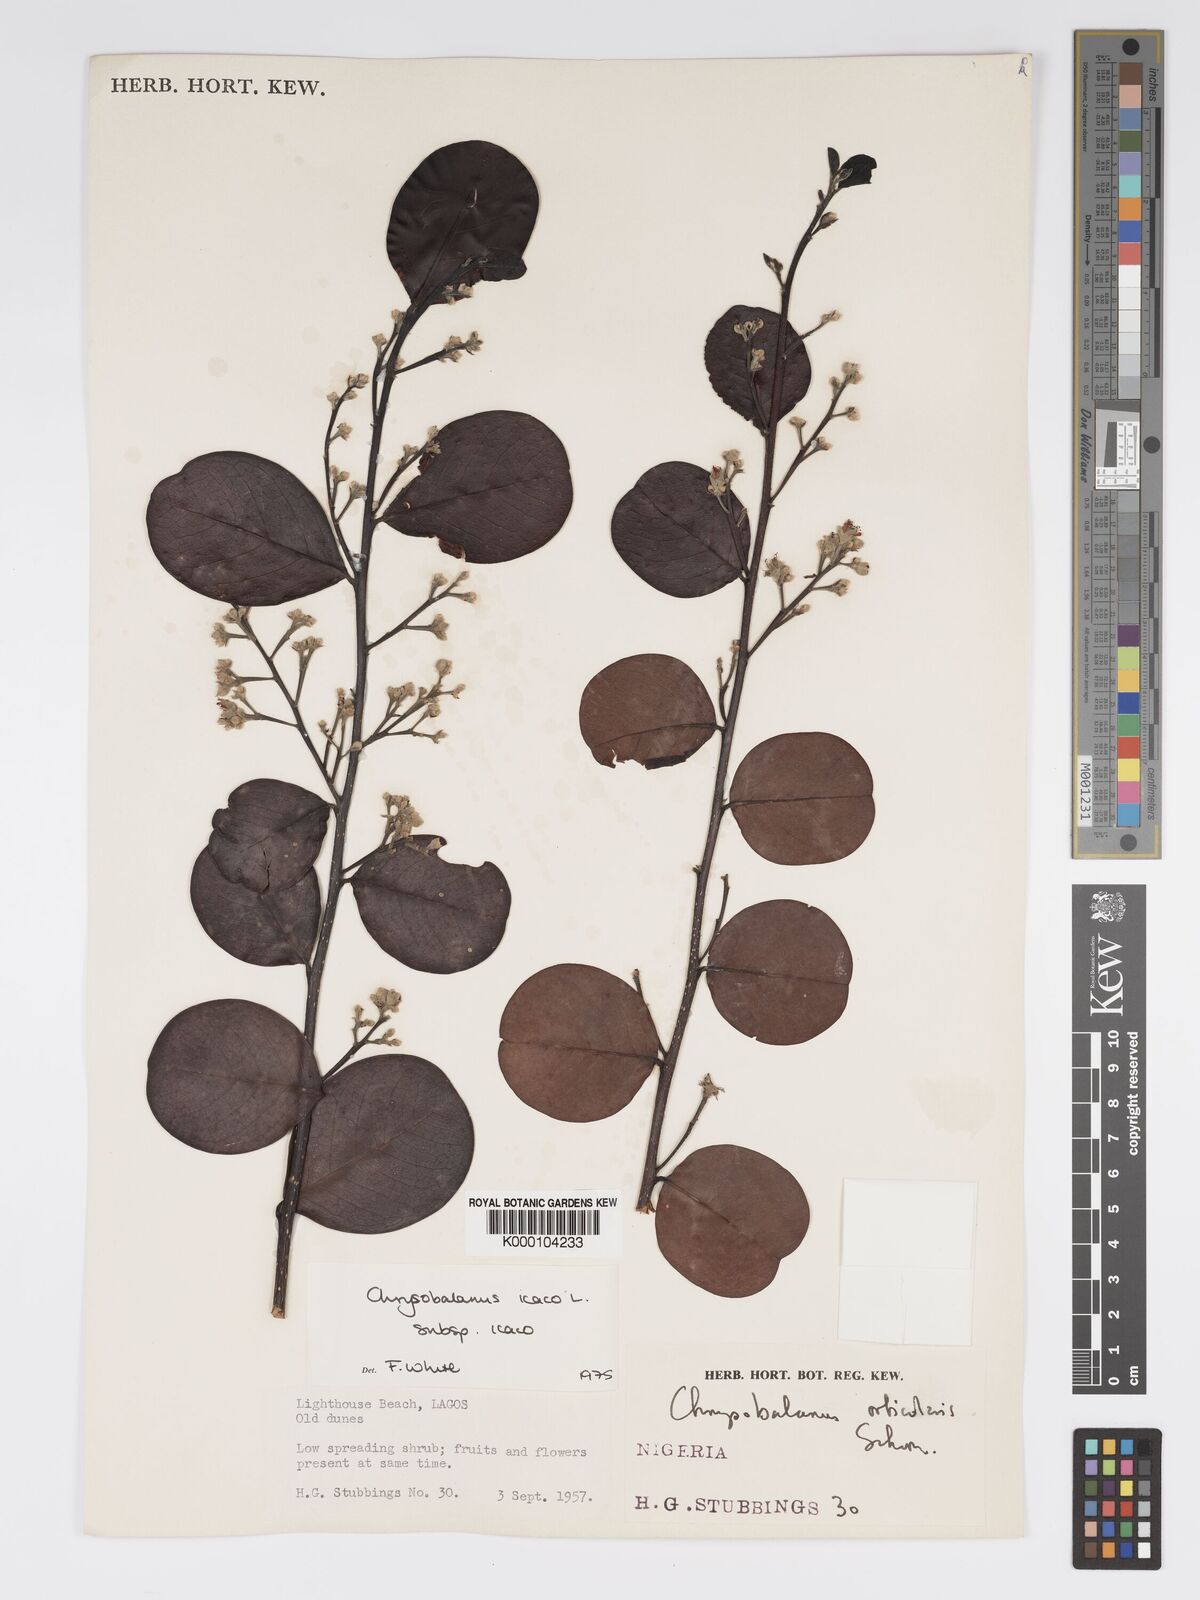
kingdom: Plantae
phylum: Tracheophyta
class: Magnoliopsida
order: Malpighiales
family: Chrysobalanaceae
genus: Chrysobalanus
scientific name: Chrysobalanus icaco
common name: Coco plum
